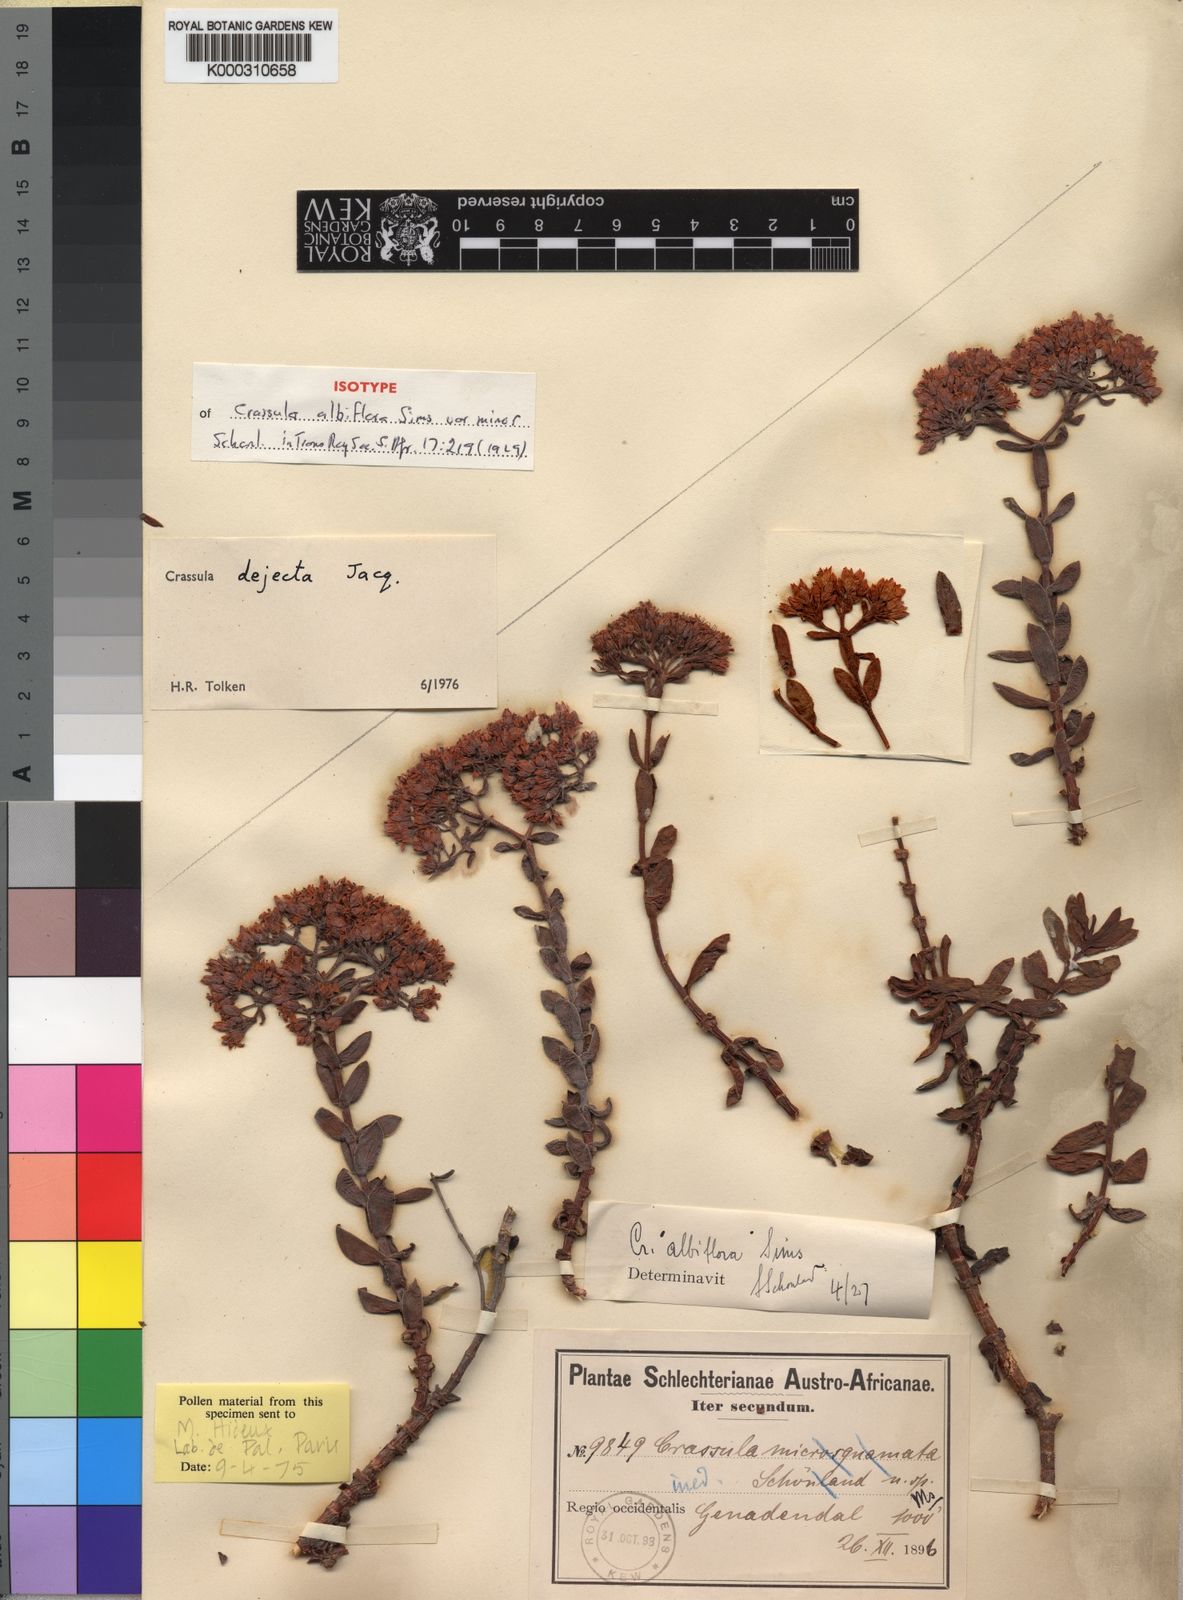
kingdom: Plantae
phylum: Tracheophyta
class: Magnoliopsida
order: Saxifragales
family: Crassulaceae
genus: Crassula
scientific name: Crassula undulata
